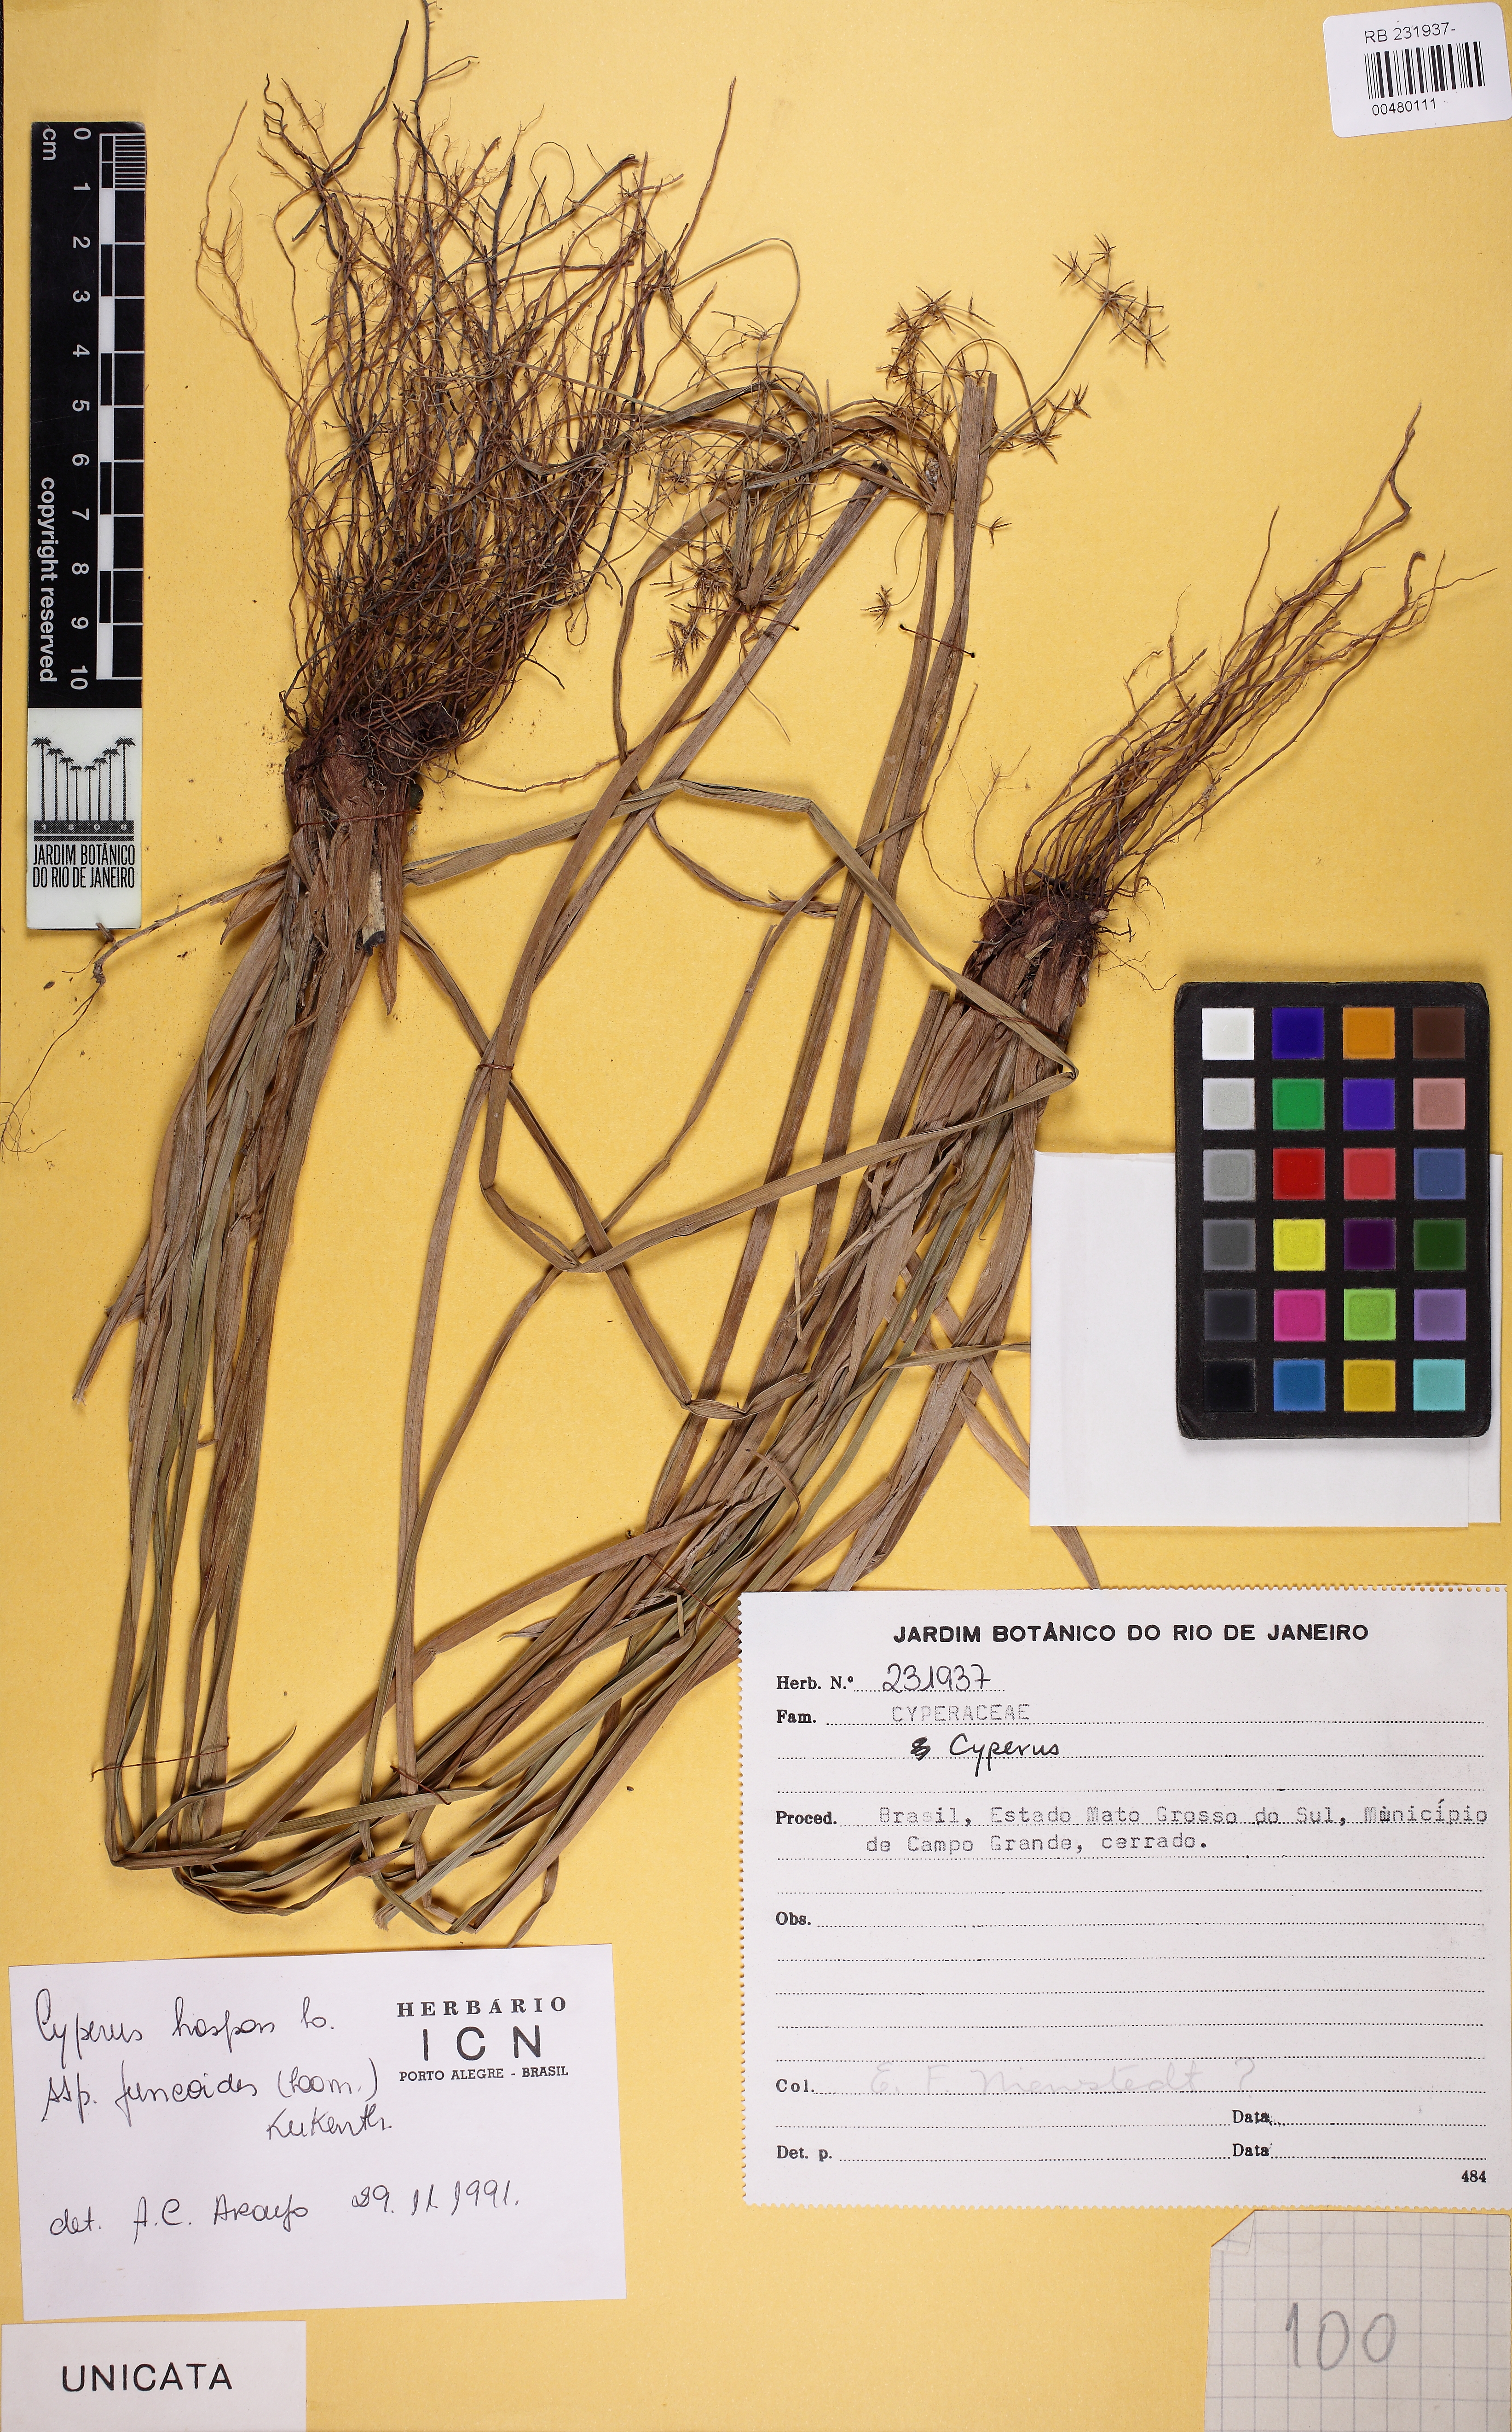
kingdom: Plantae
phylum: Tracheophyta
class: Liliopsida
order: Poales
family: Cyperaceae
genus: Cyperus
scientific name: Cyperus haspan
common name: Haspan flatsedge
